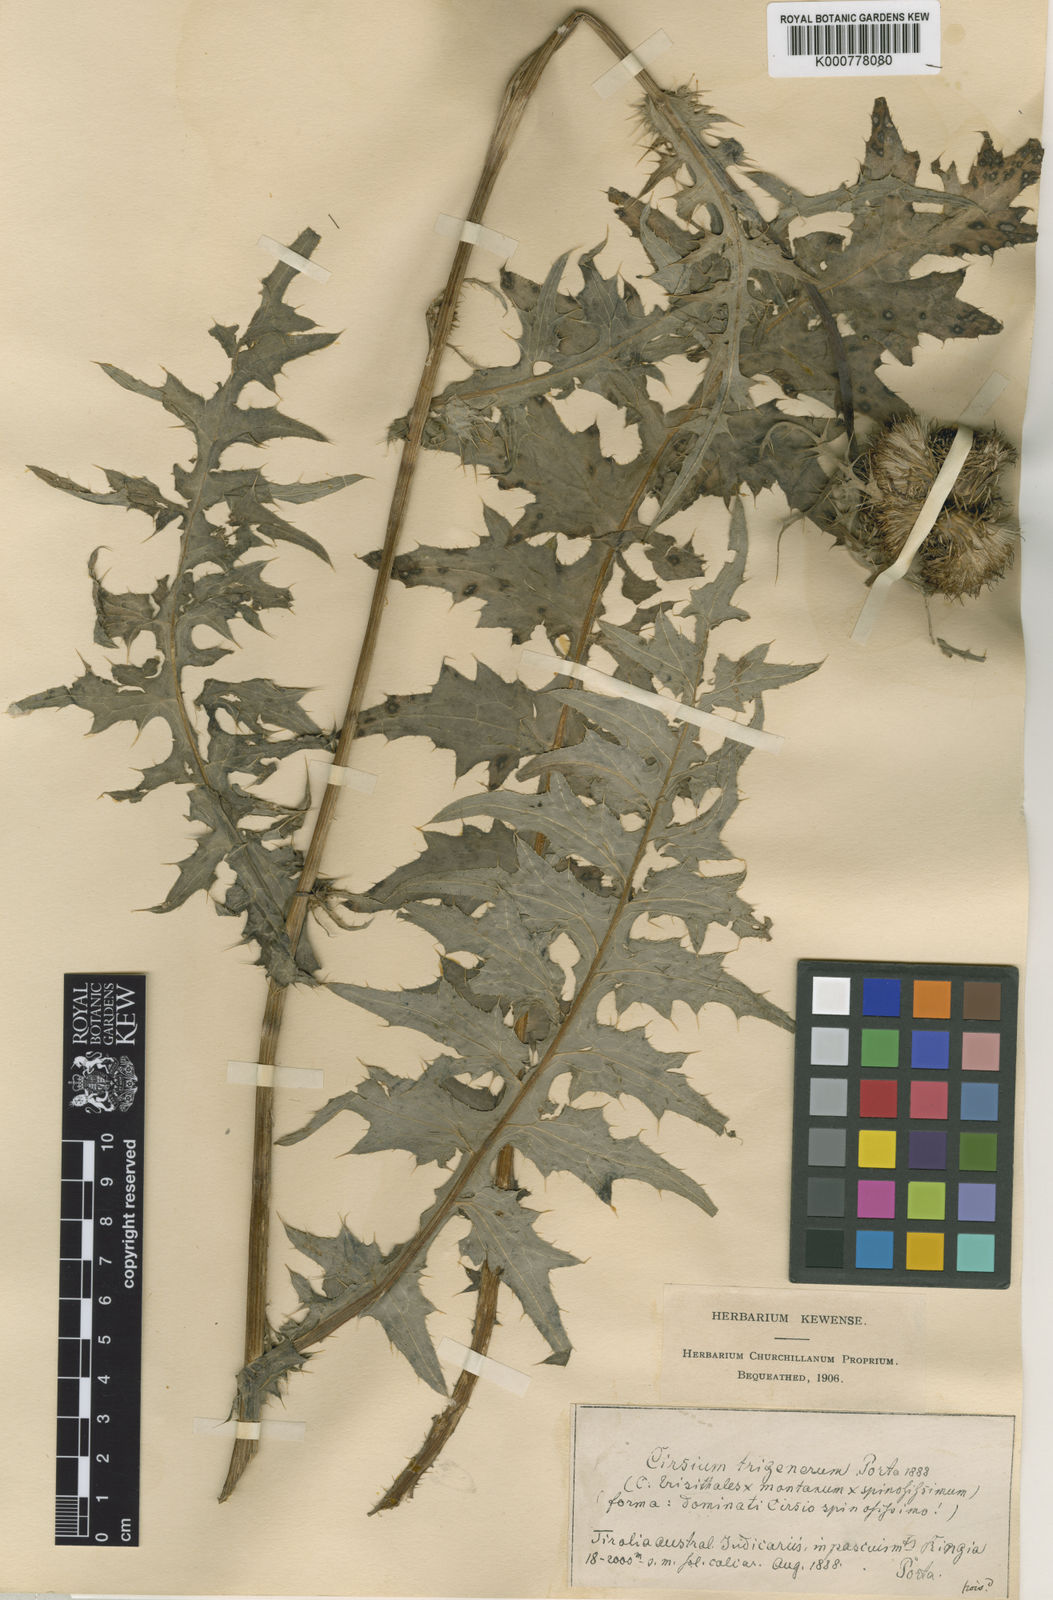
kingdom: Plantae
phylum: Tracheophyta
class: Magnoliopsida
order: Asterales
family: Asteraceae
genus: Cirsium
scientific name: Cirsium erisithales
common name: Yellow thistle
